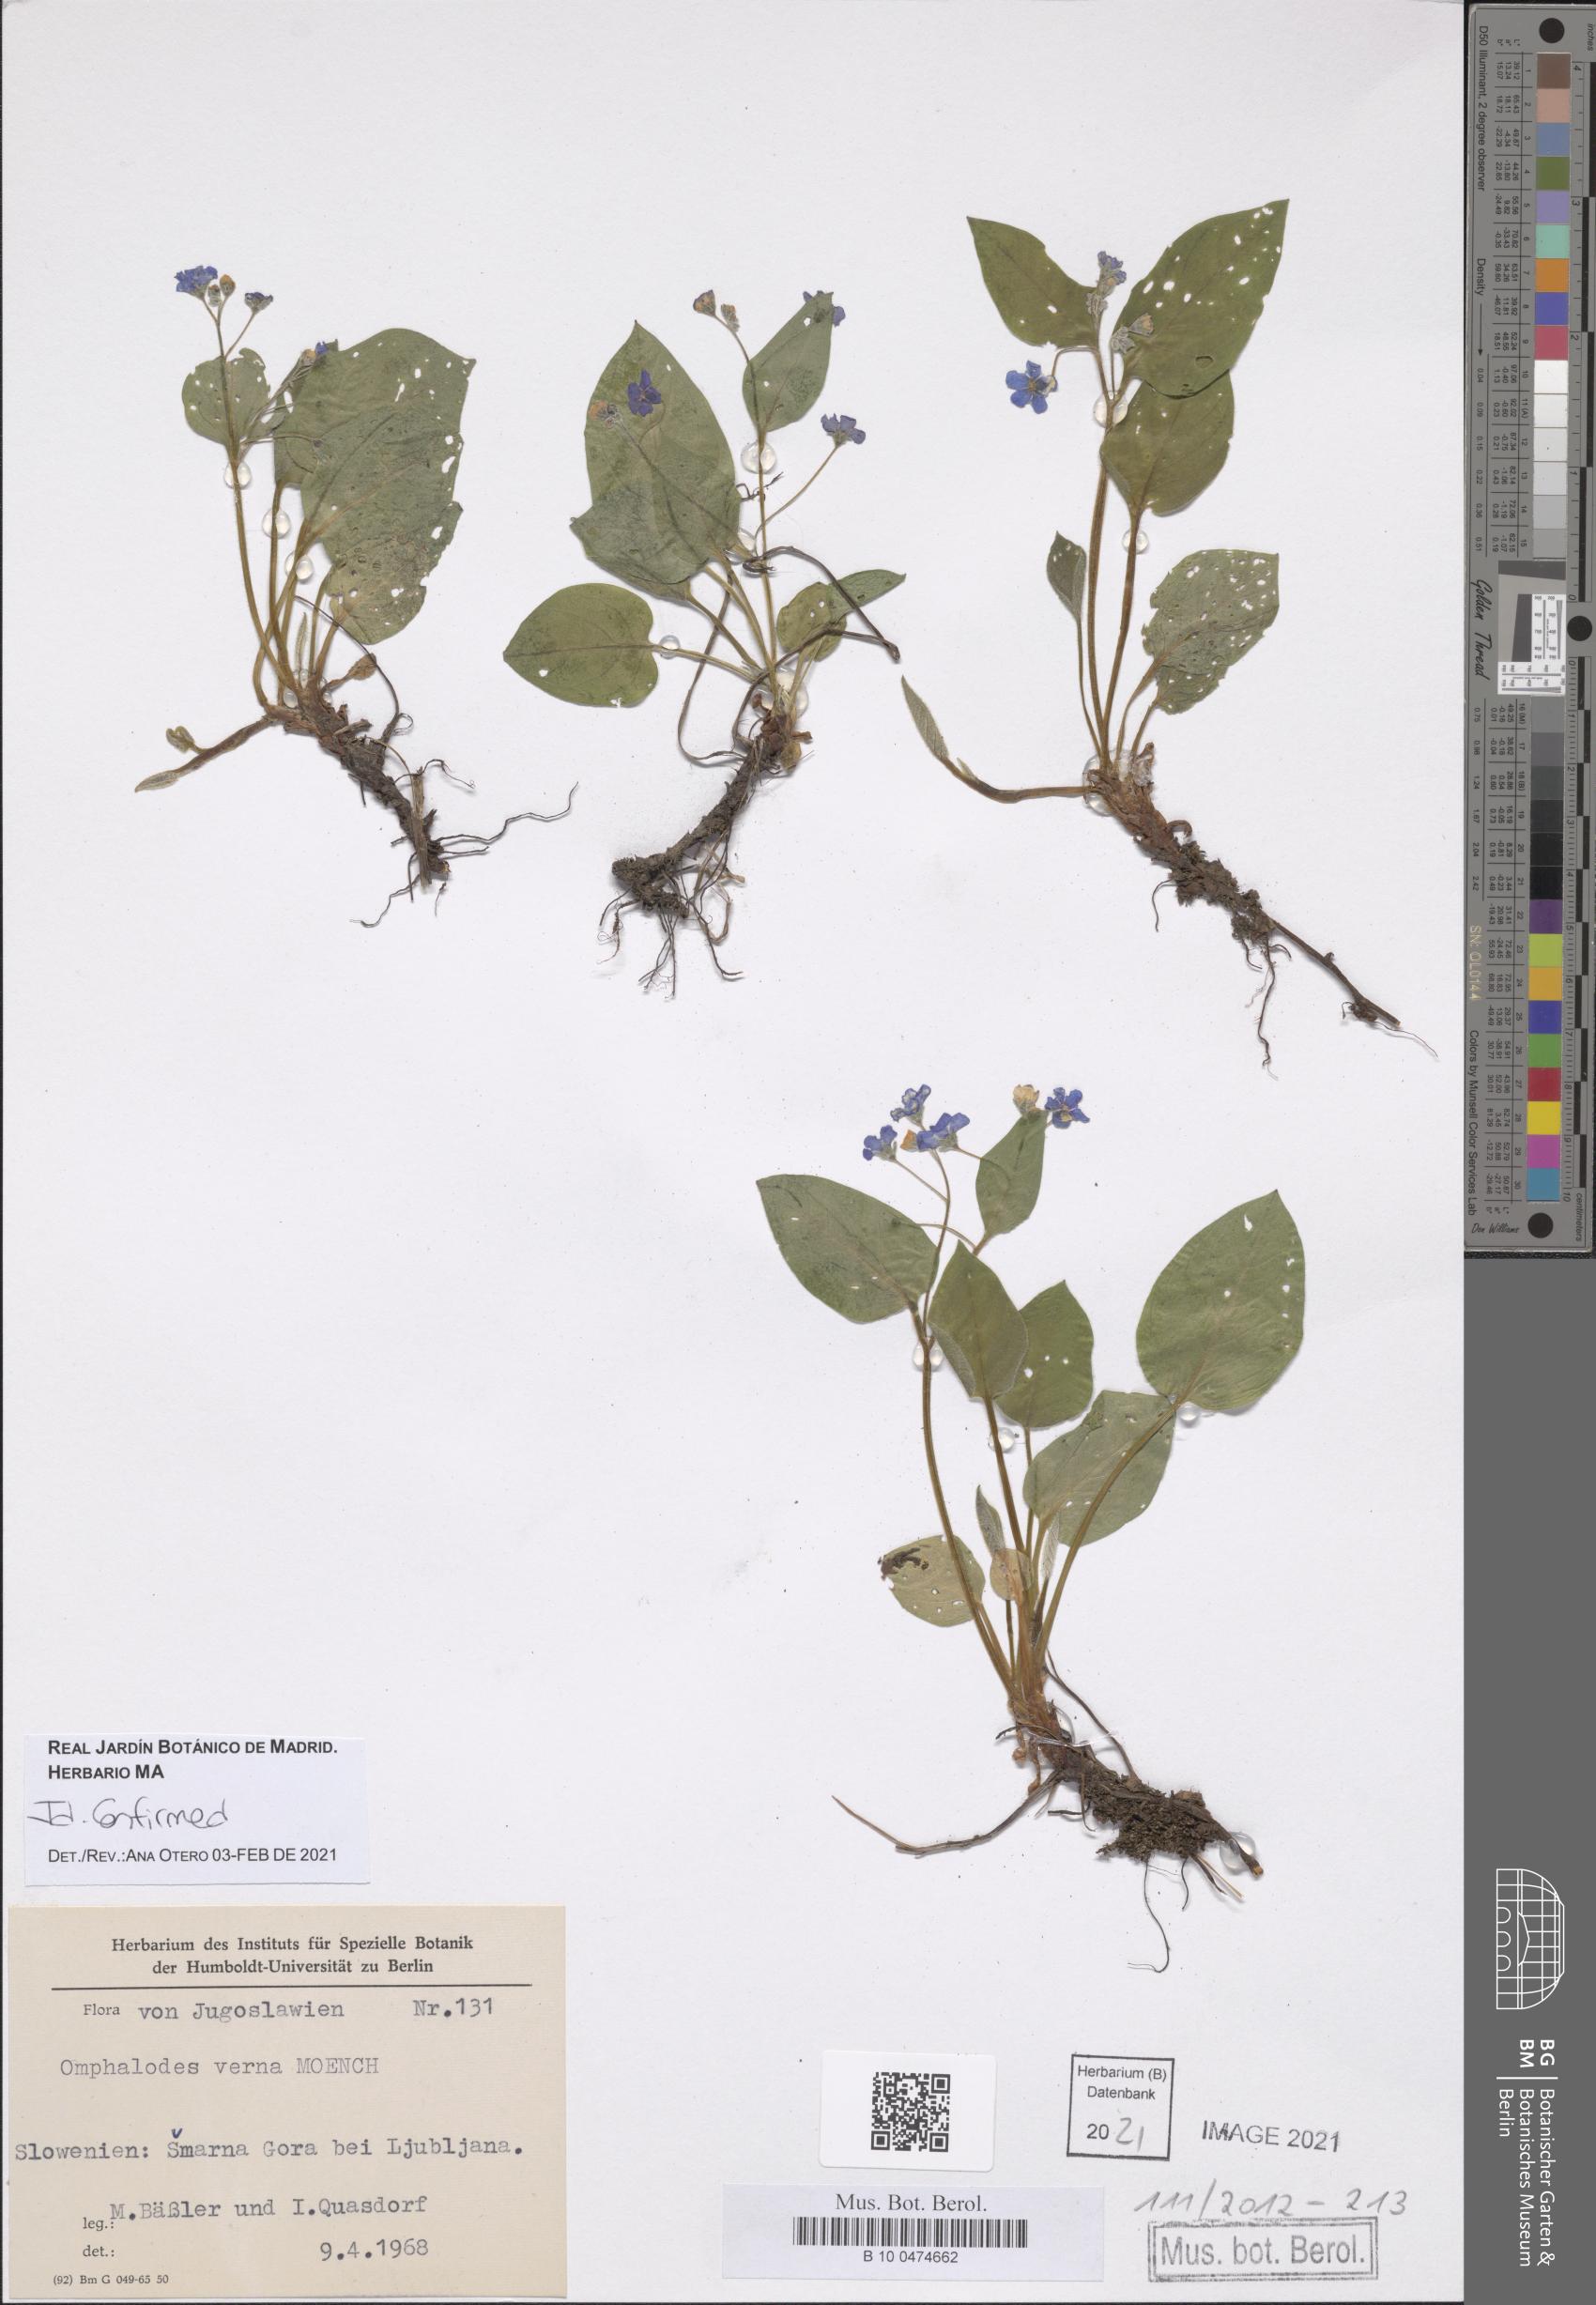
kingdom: Plantae
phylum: Tracheophyta
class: Magnoliopsida
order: Boraginales
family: Boraginaceae
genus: Omphalodes
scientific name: Omphalodes verna
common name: Blue-eyed-mary
